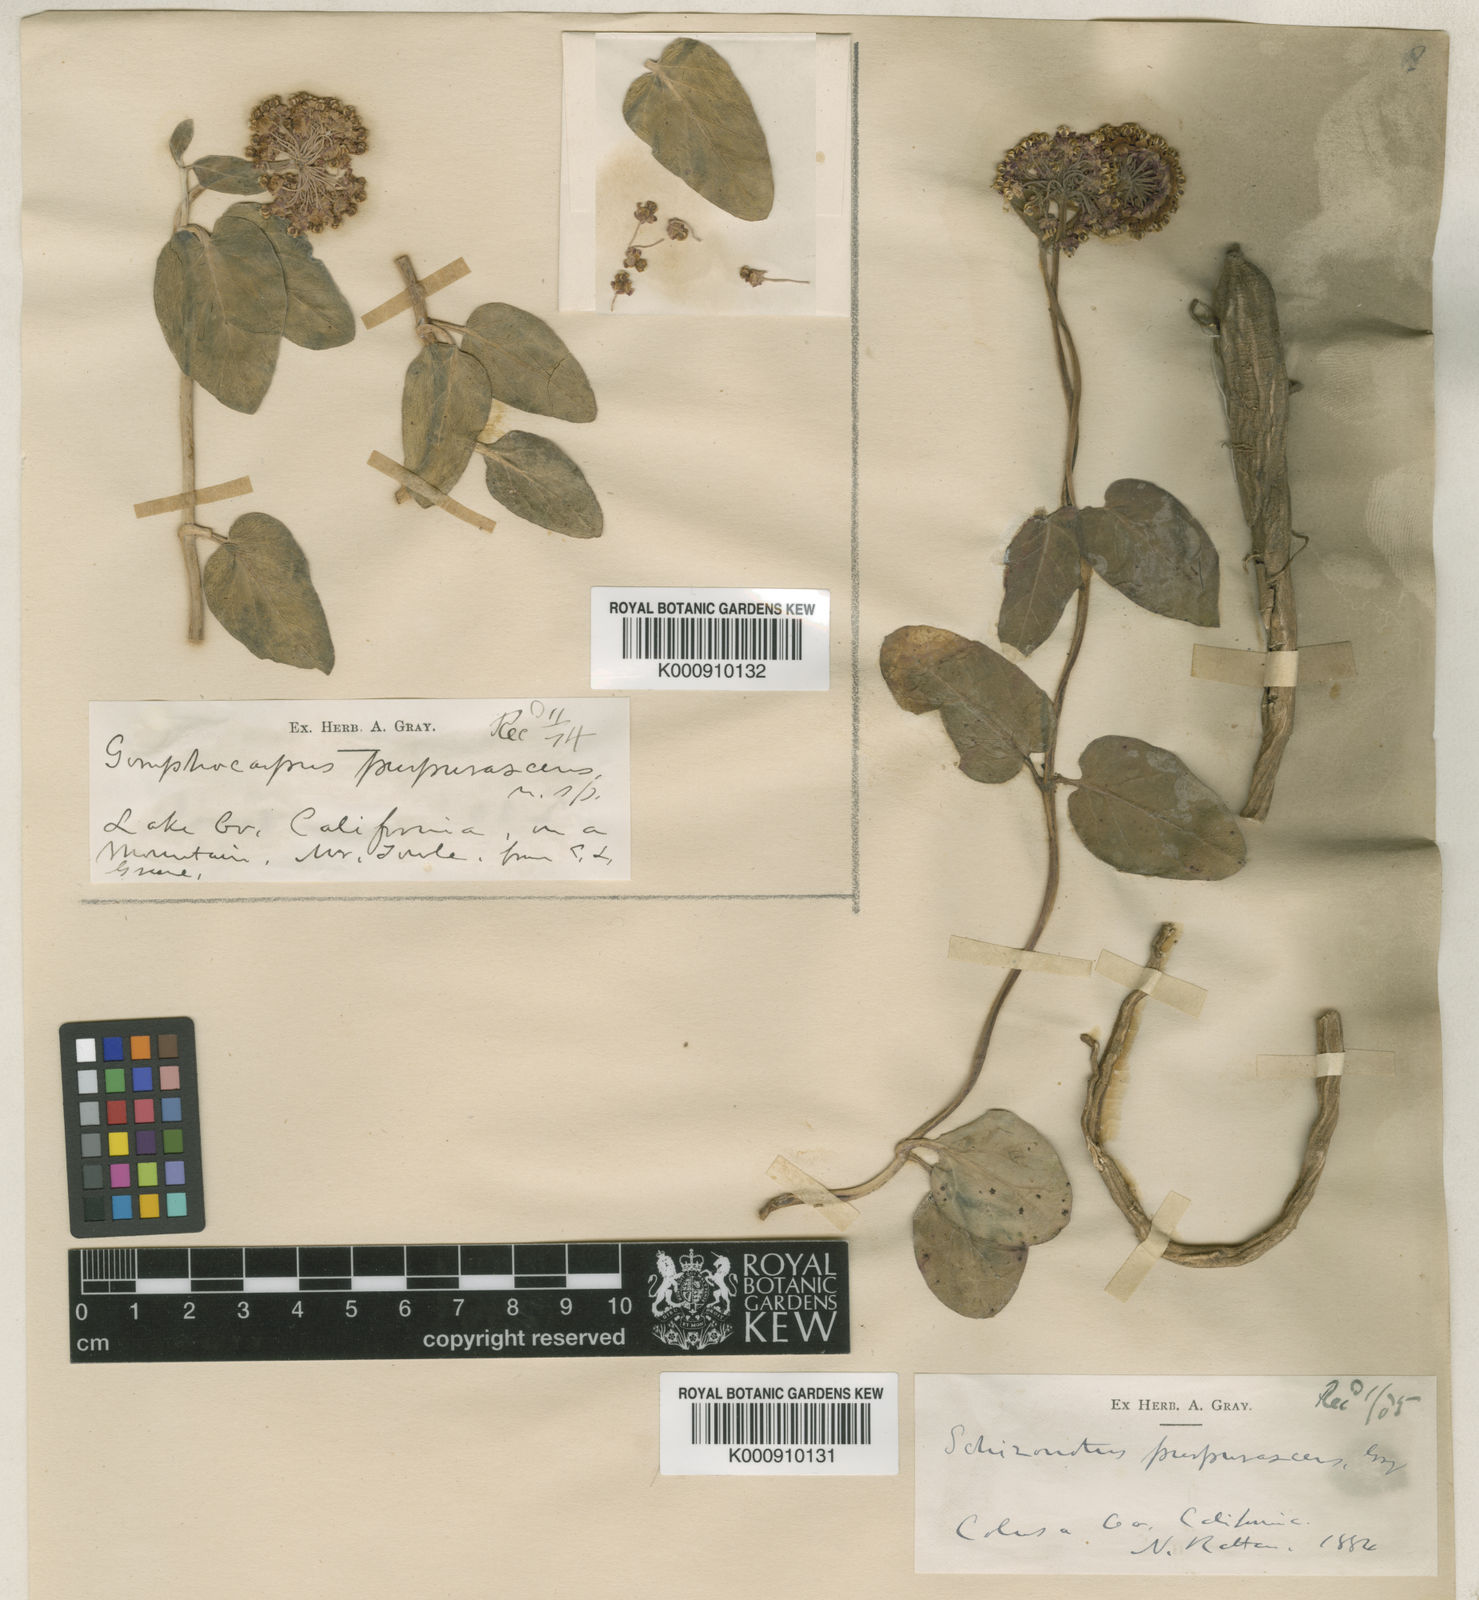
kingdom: Plantae
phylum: Tracheophyta
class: Magnoliopsida
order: Gentianales
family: Apocynaceae
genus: Asclepias
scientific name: Asclepias solanoana
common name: Serpentine milkweed
